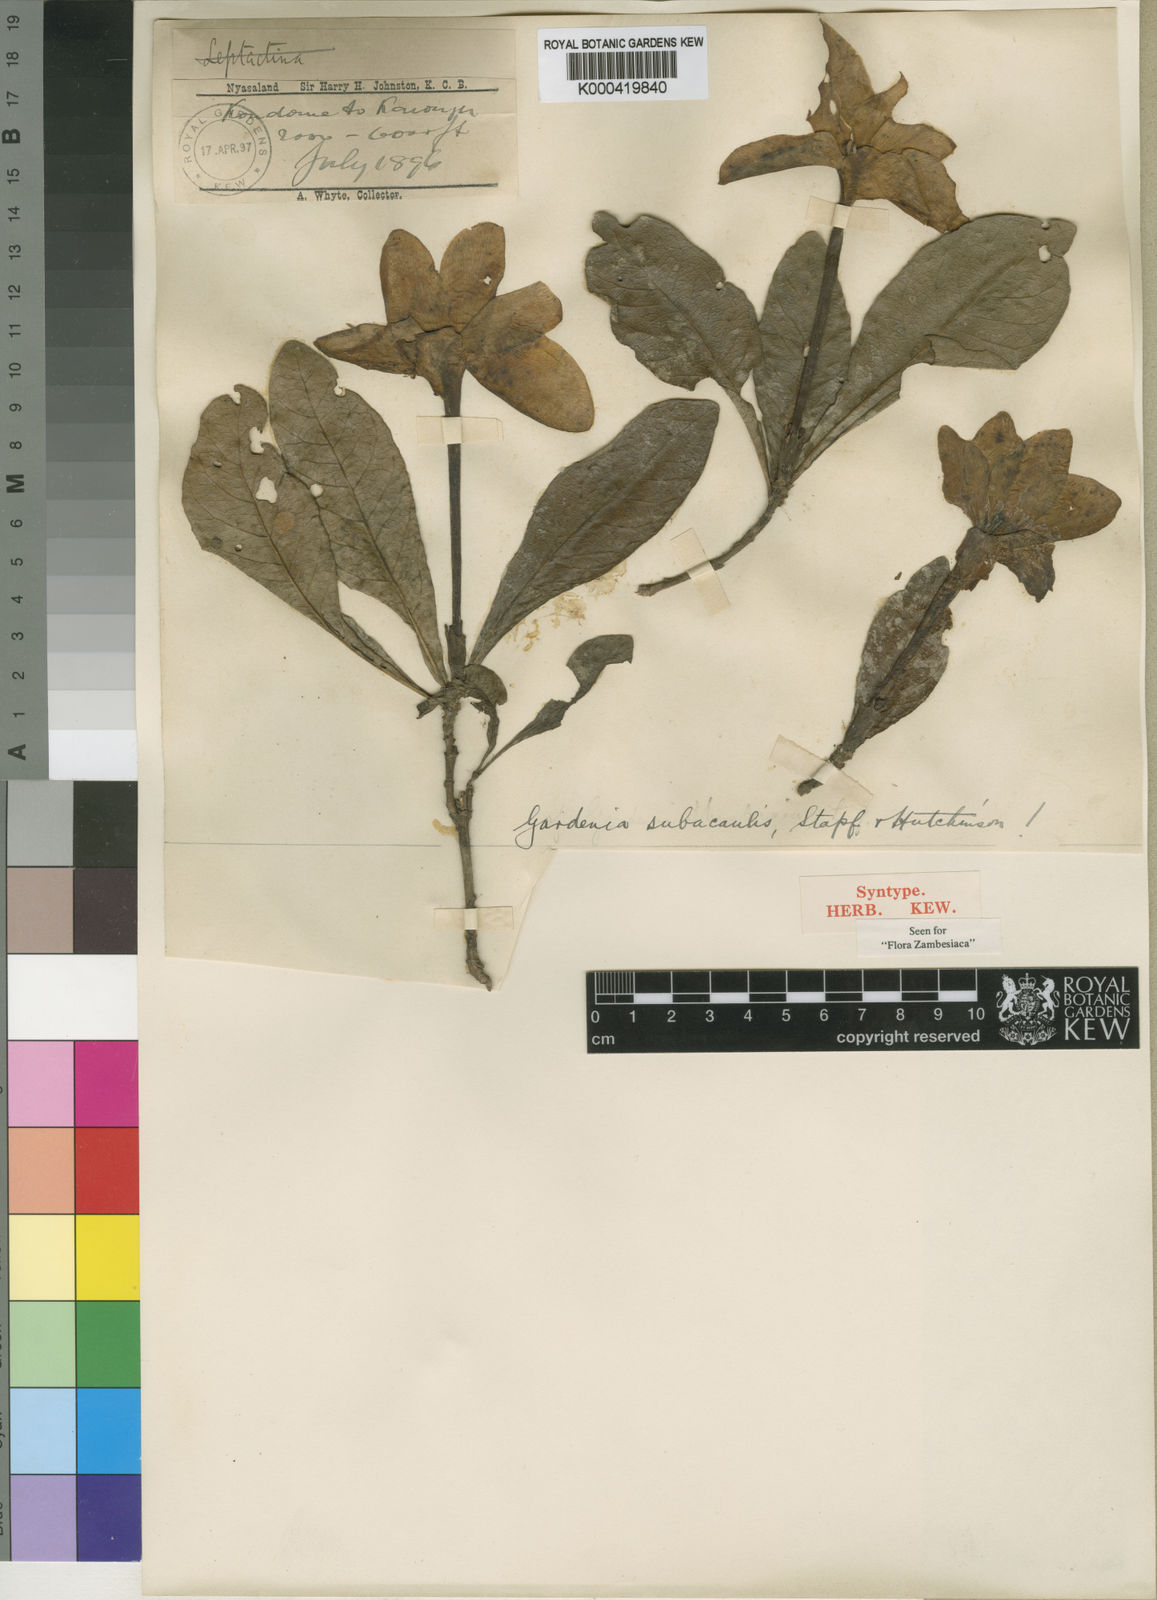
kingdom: Plantae
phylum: Tracheophyta
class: Magnoliopsida
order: Gentianales
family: Rubiaceae
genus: Gardenia
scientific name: Gardenia subacaulis
